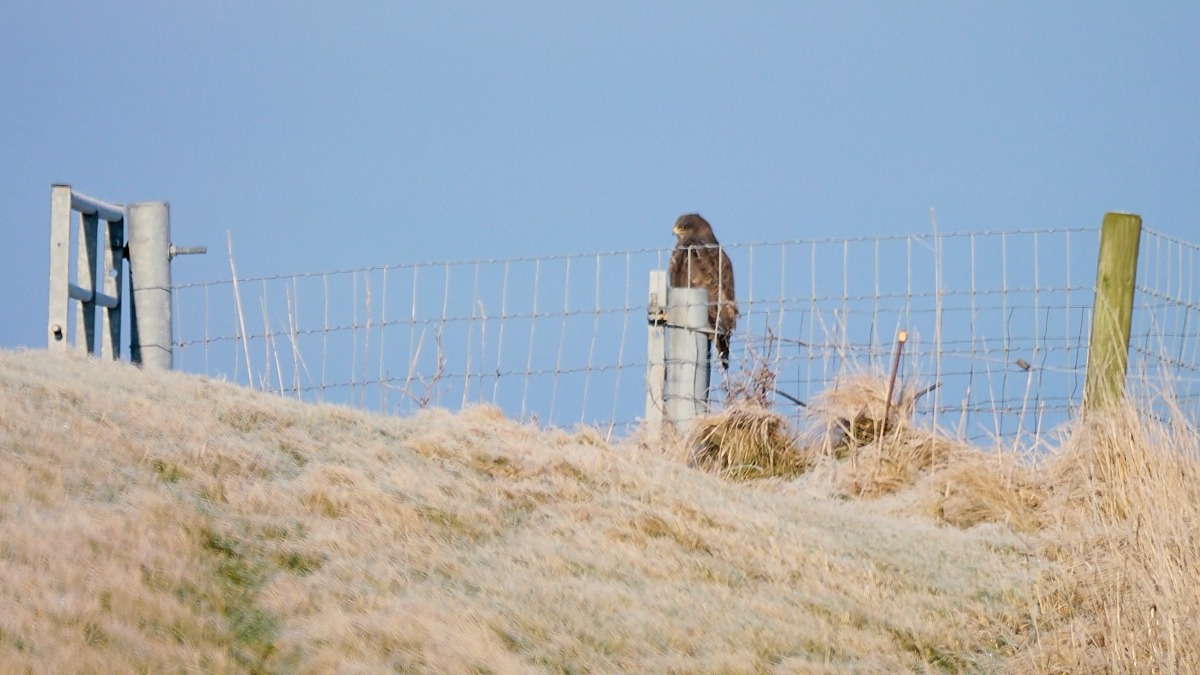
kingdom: Animalia
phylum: Chordata
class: Aves
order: Accipitriformes
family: Accipitridae
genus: Buteo
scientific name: Buteo buteo
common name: Musvåge
